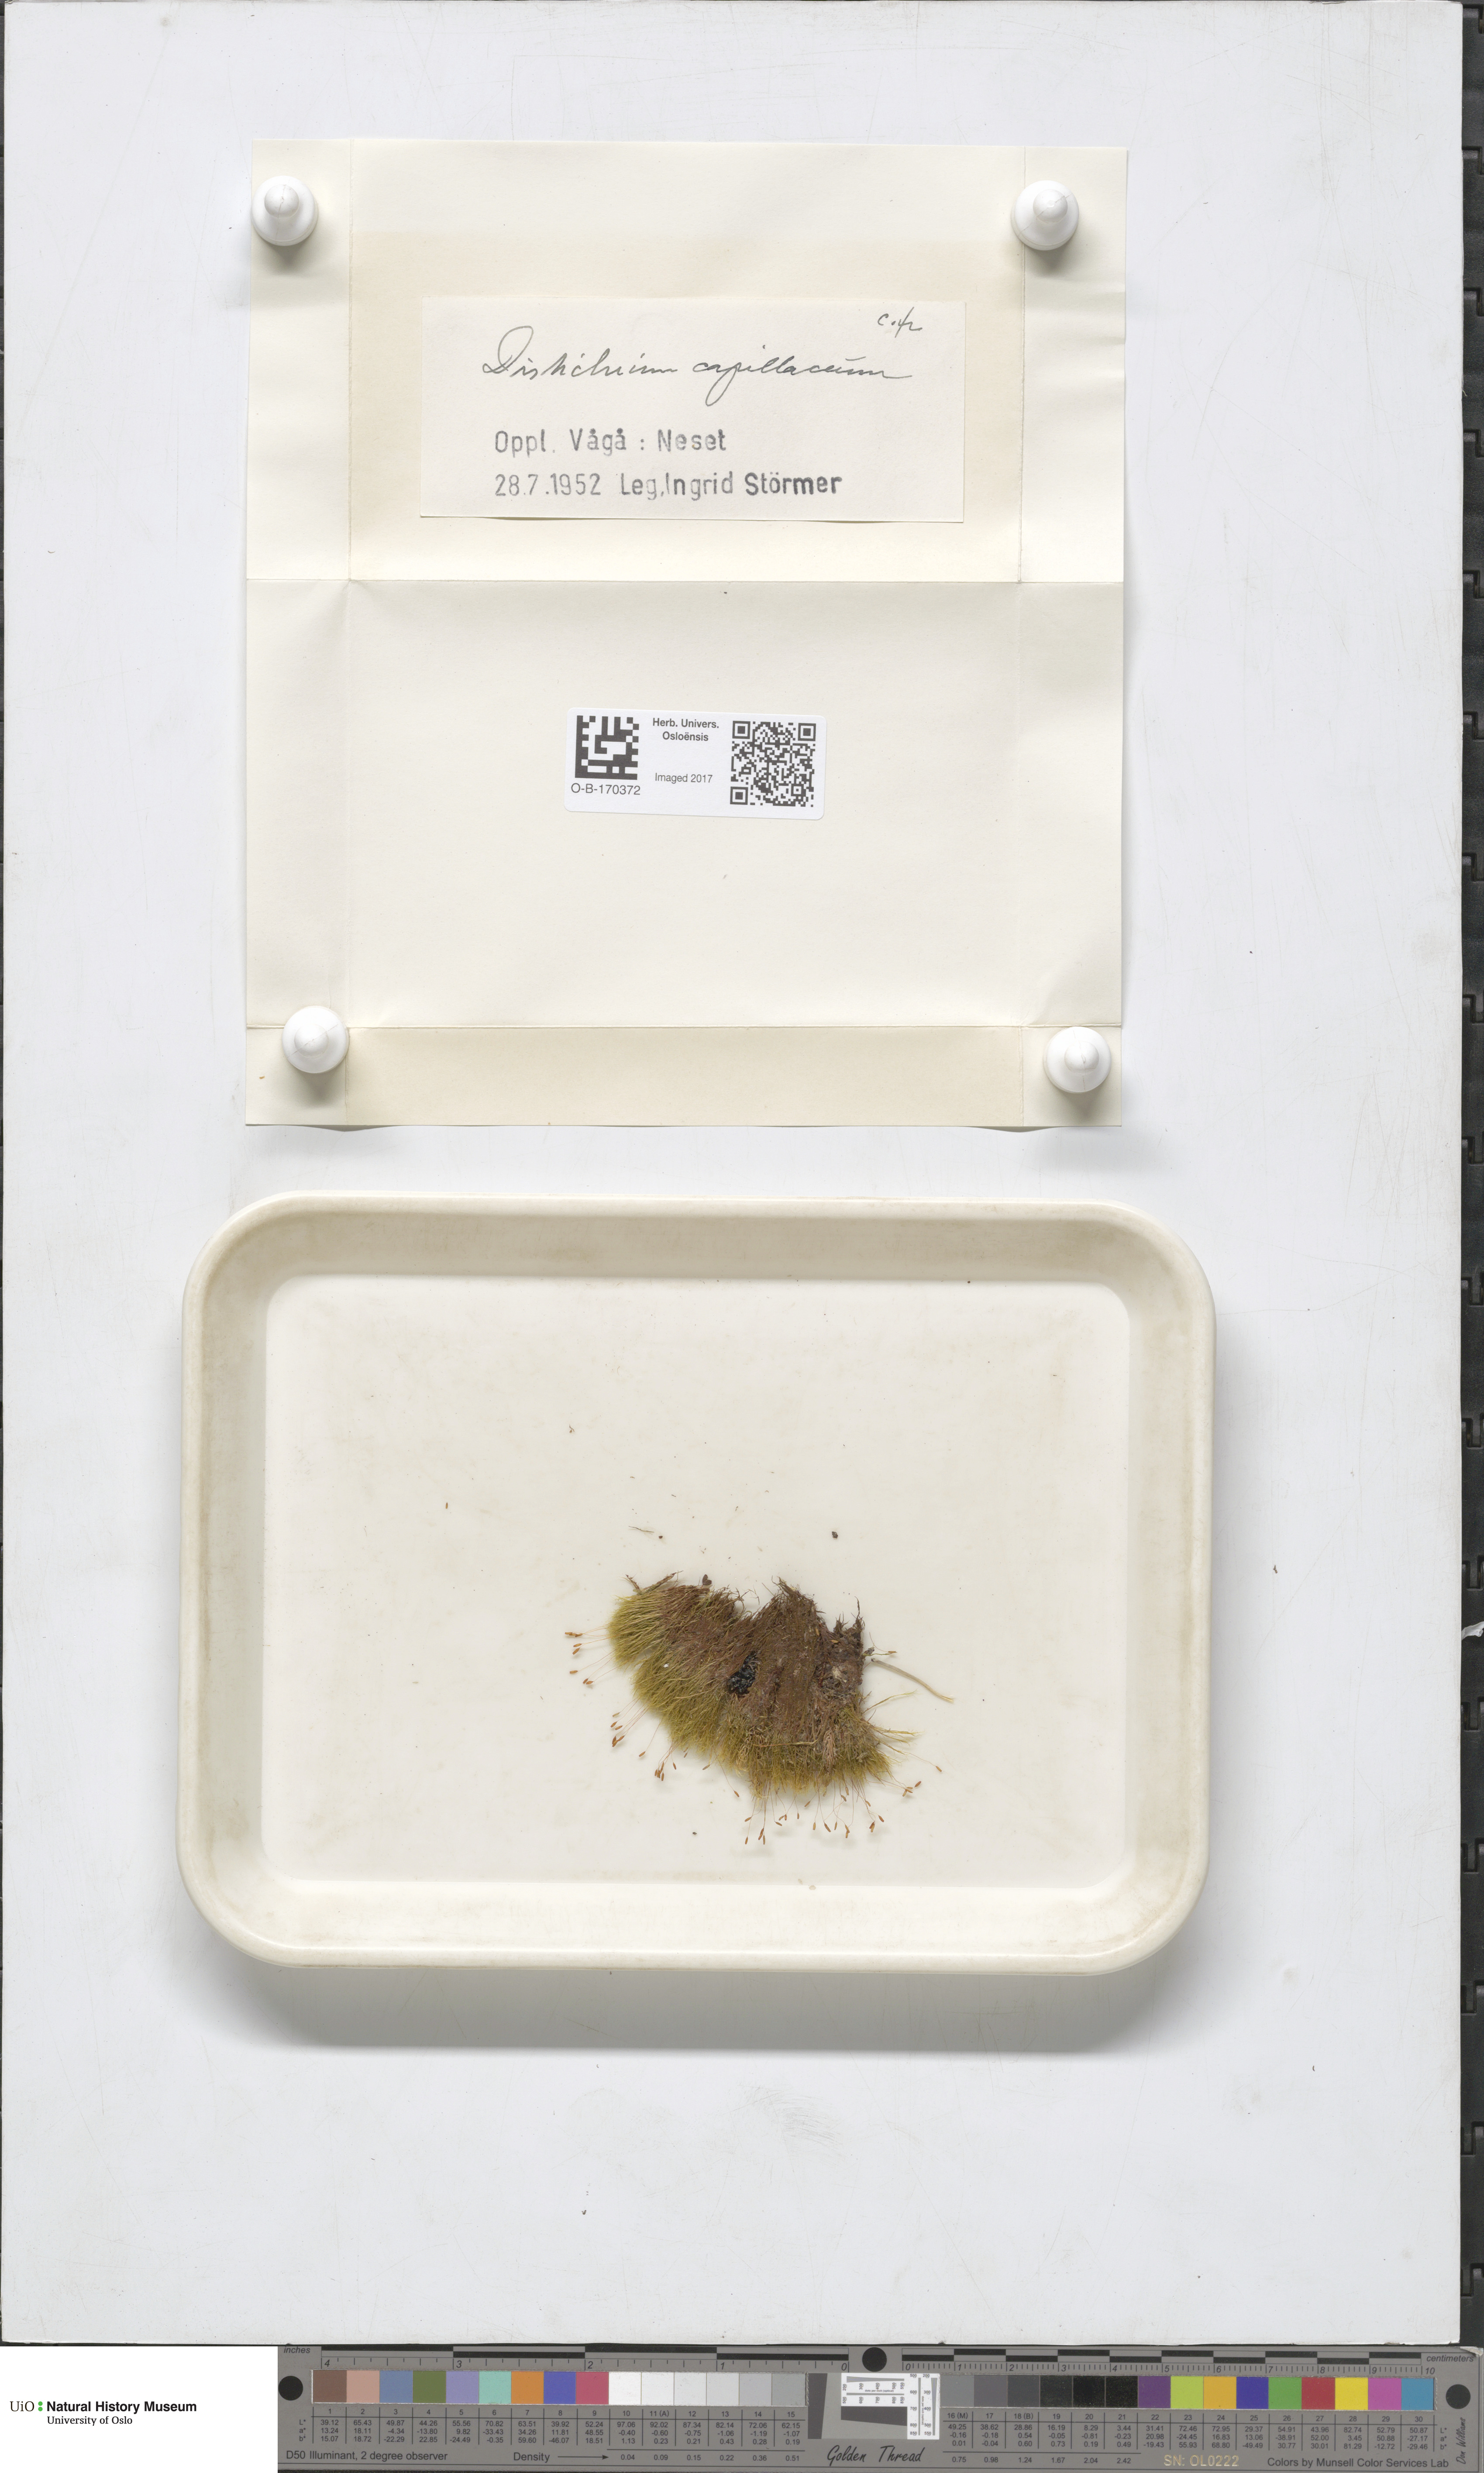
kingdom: Plantae
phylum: Bryophyta
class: Bryopsida
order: Scouleriales
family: Distichiaceae
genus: Distichium
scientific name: Distichium capillaceum
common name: Erect-fruited iris moss
